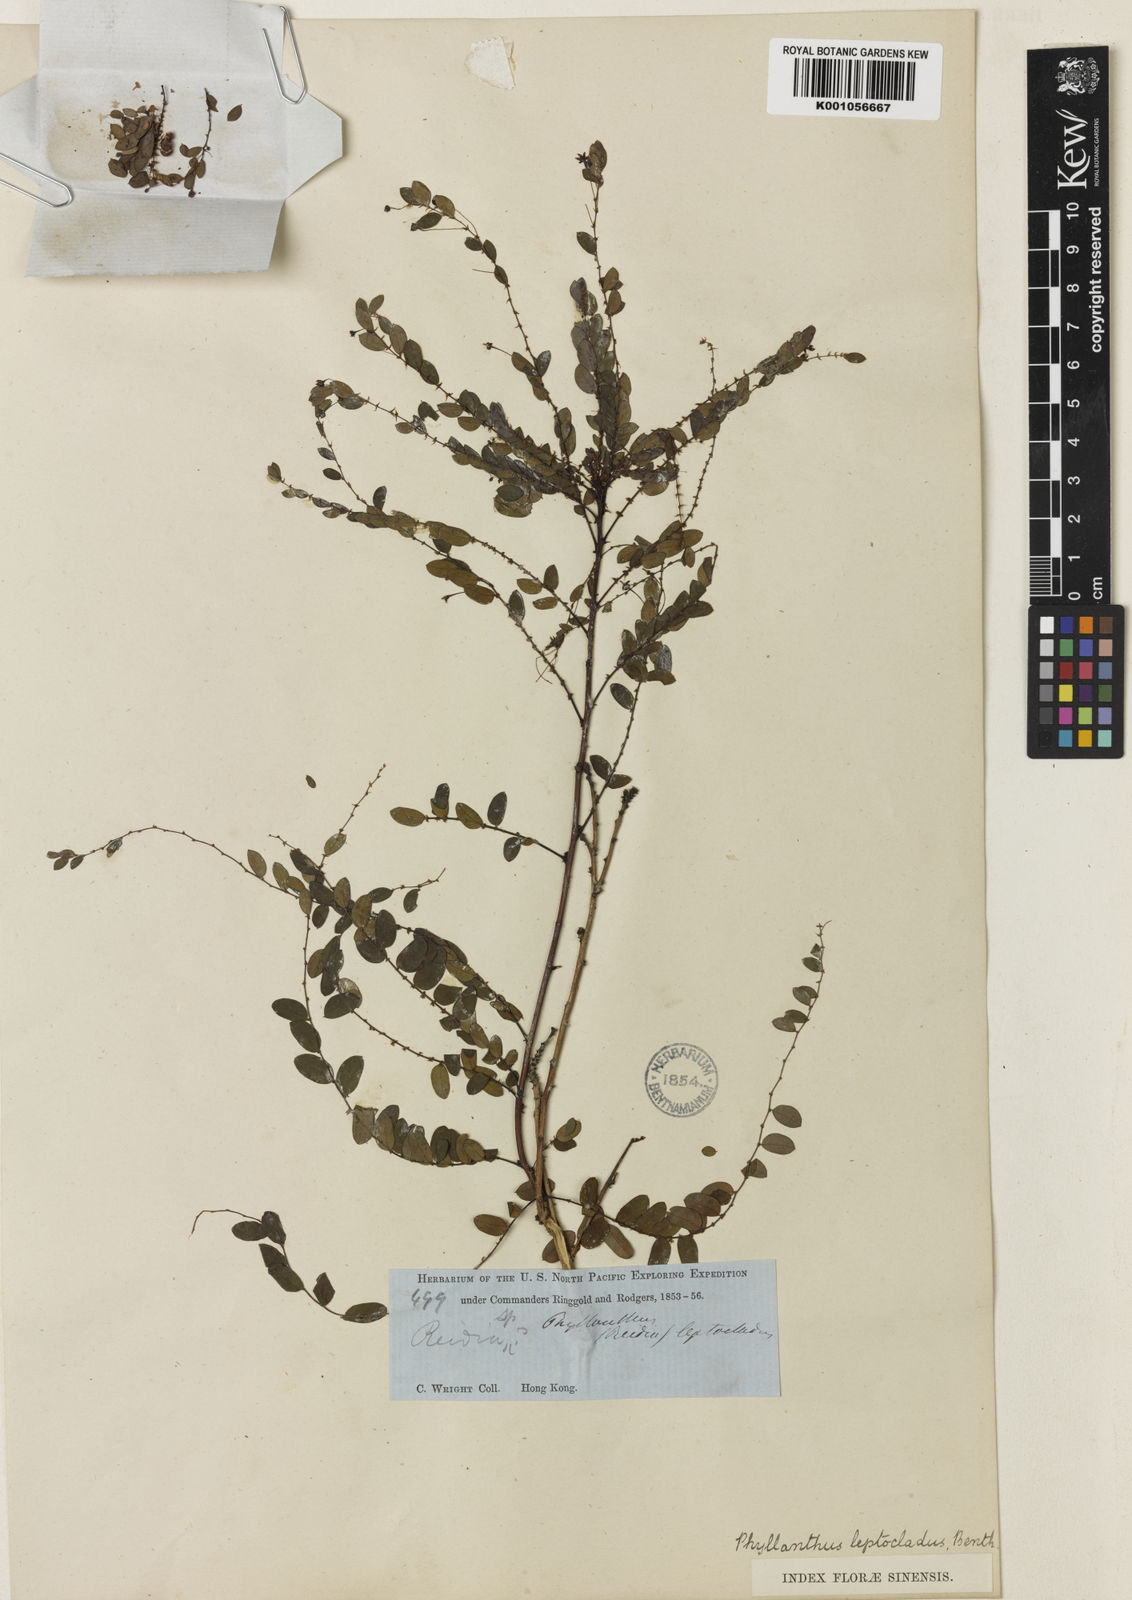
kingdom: Plantae
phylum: Tracheophyta
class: Magnoliopsida
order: Malpighiales
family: Phyllanthaceae
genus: Phyllanthus
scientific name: Phyllanthus leptoclados
